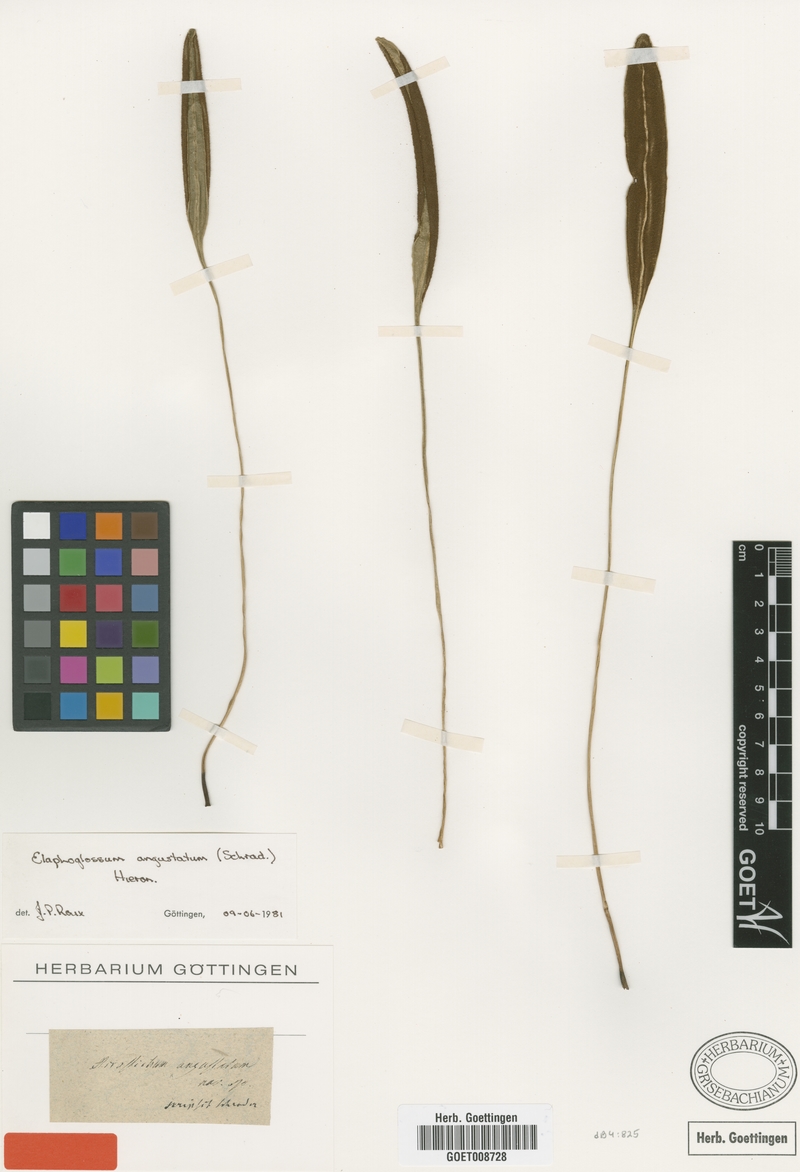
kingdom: Plantae
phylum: Tracheophyta
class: Polypodiopsida
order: Polypodiales
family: Dryopteridaceae
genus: Elaphoglossum
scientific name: Elaphoglossum angustatum
